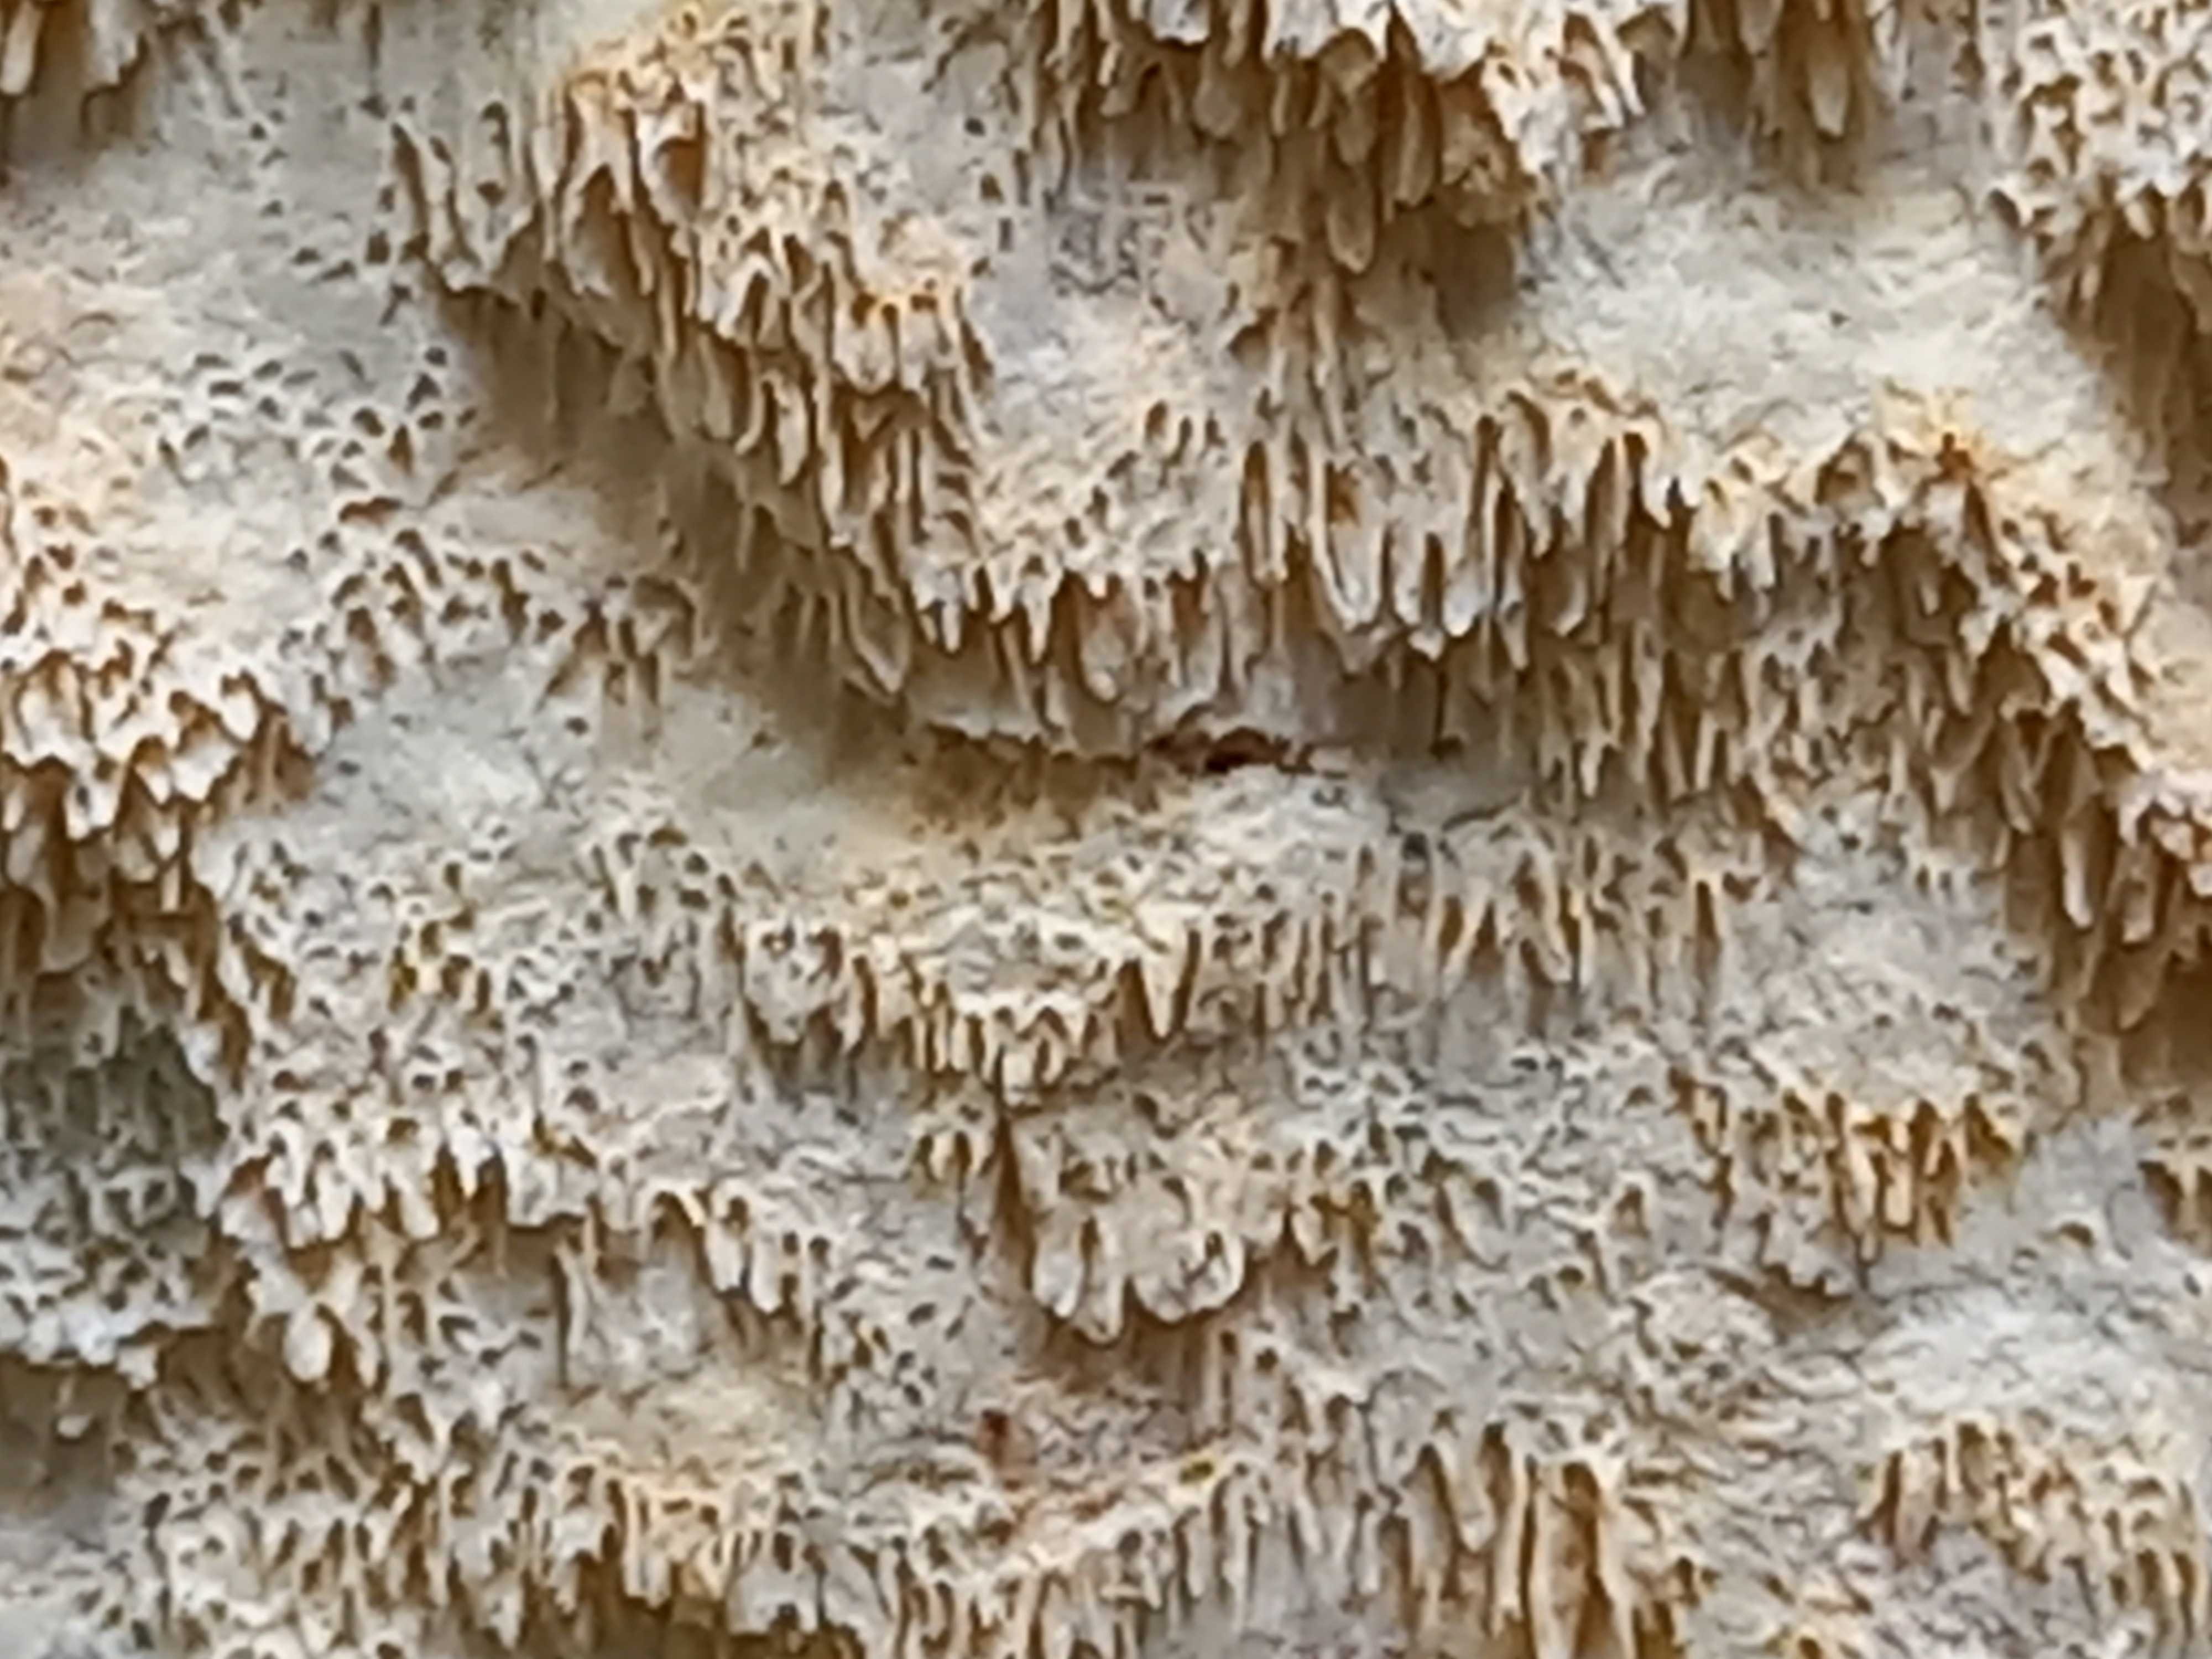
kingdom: Fungi
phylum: Basidiomycota
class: Agaricomycetes
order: Hymenochaetales
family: Schizoporaceae
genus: Xylodon
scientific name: Xylodon
